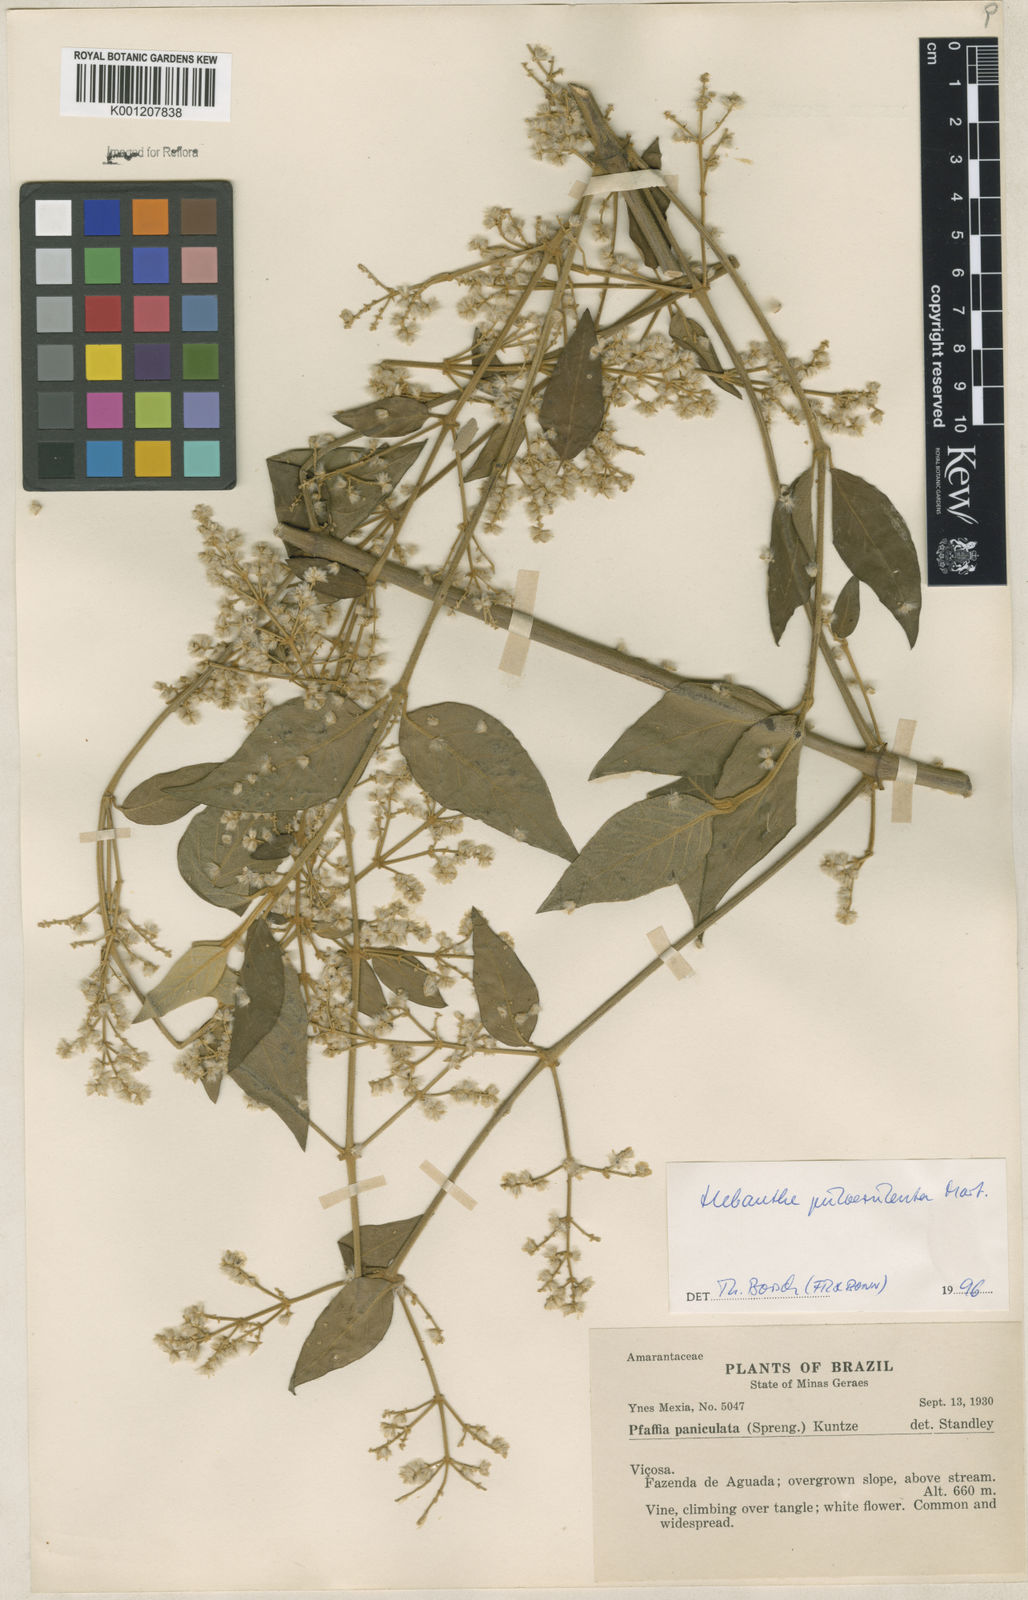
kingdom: Plantae
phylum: Tracheophyta
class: Magnoliopsida
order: Caryophyllales
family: Amaranthaceae
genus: Hebanthe
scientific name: Hebanthe pulverulenta
